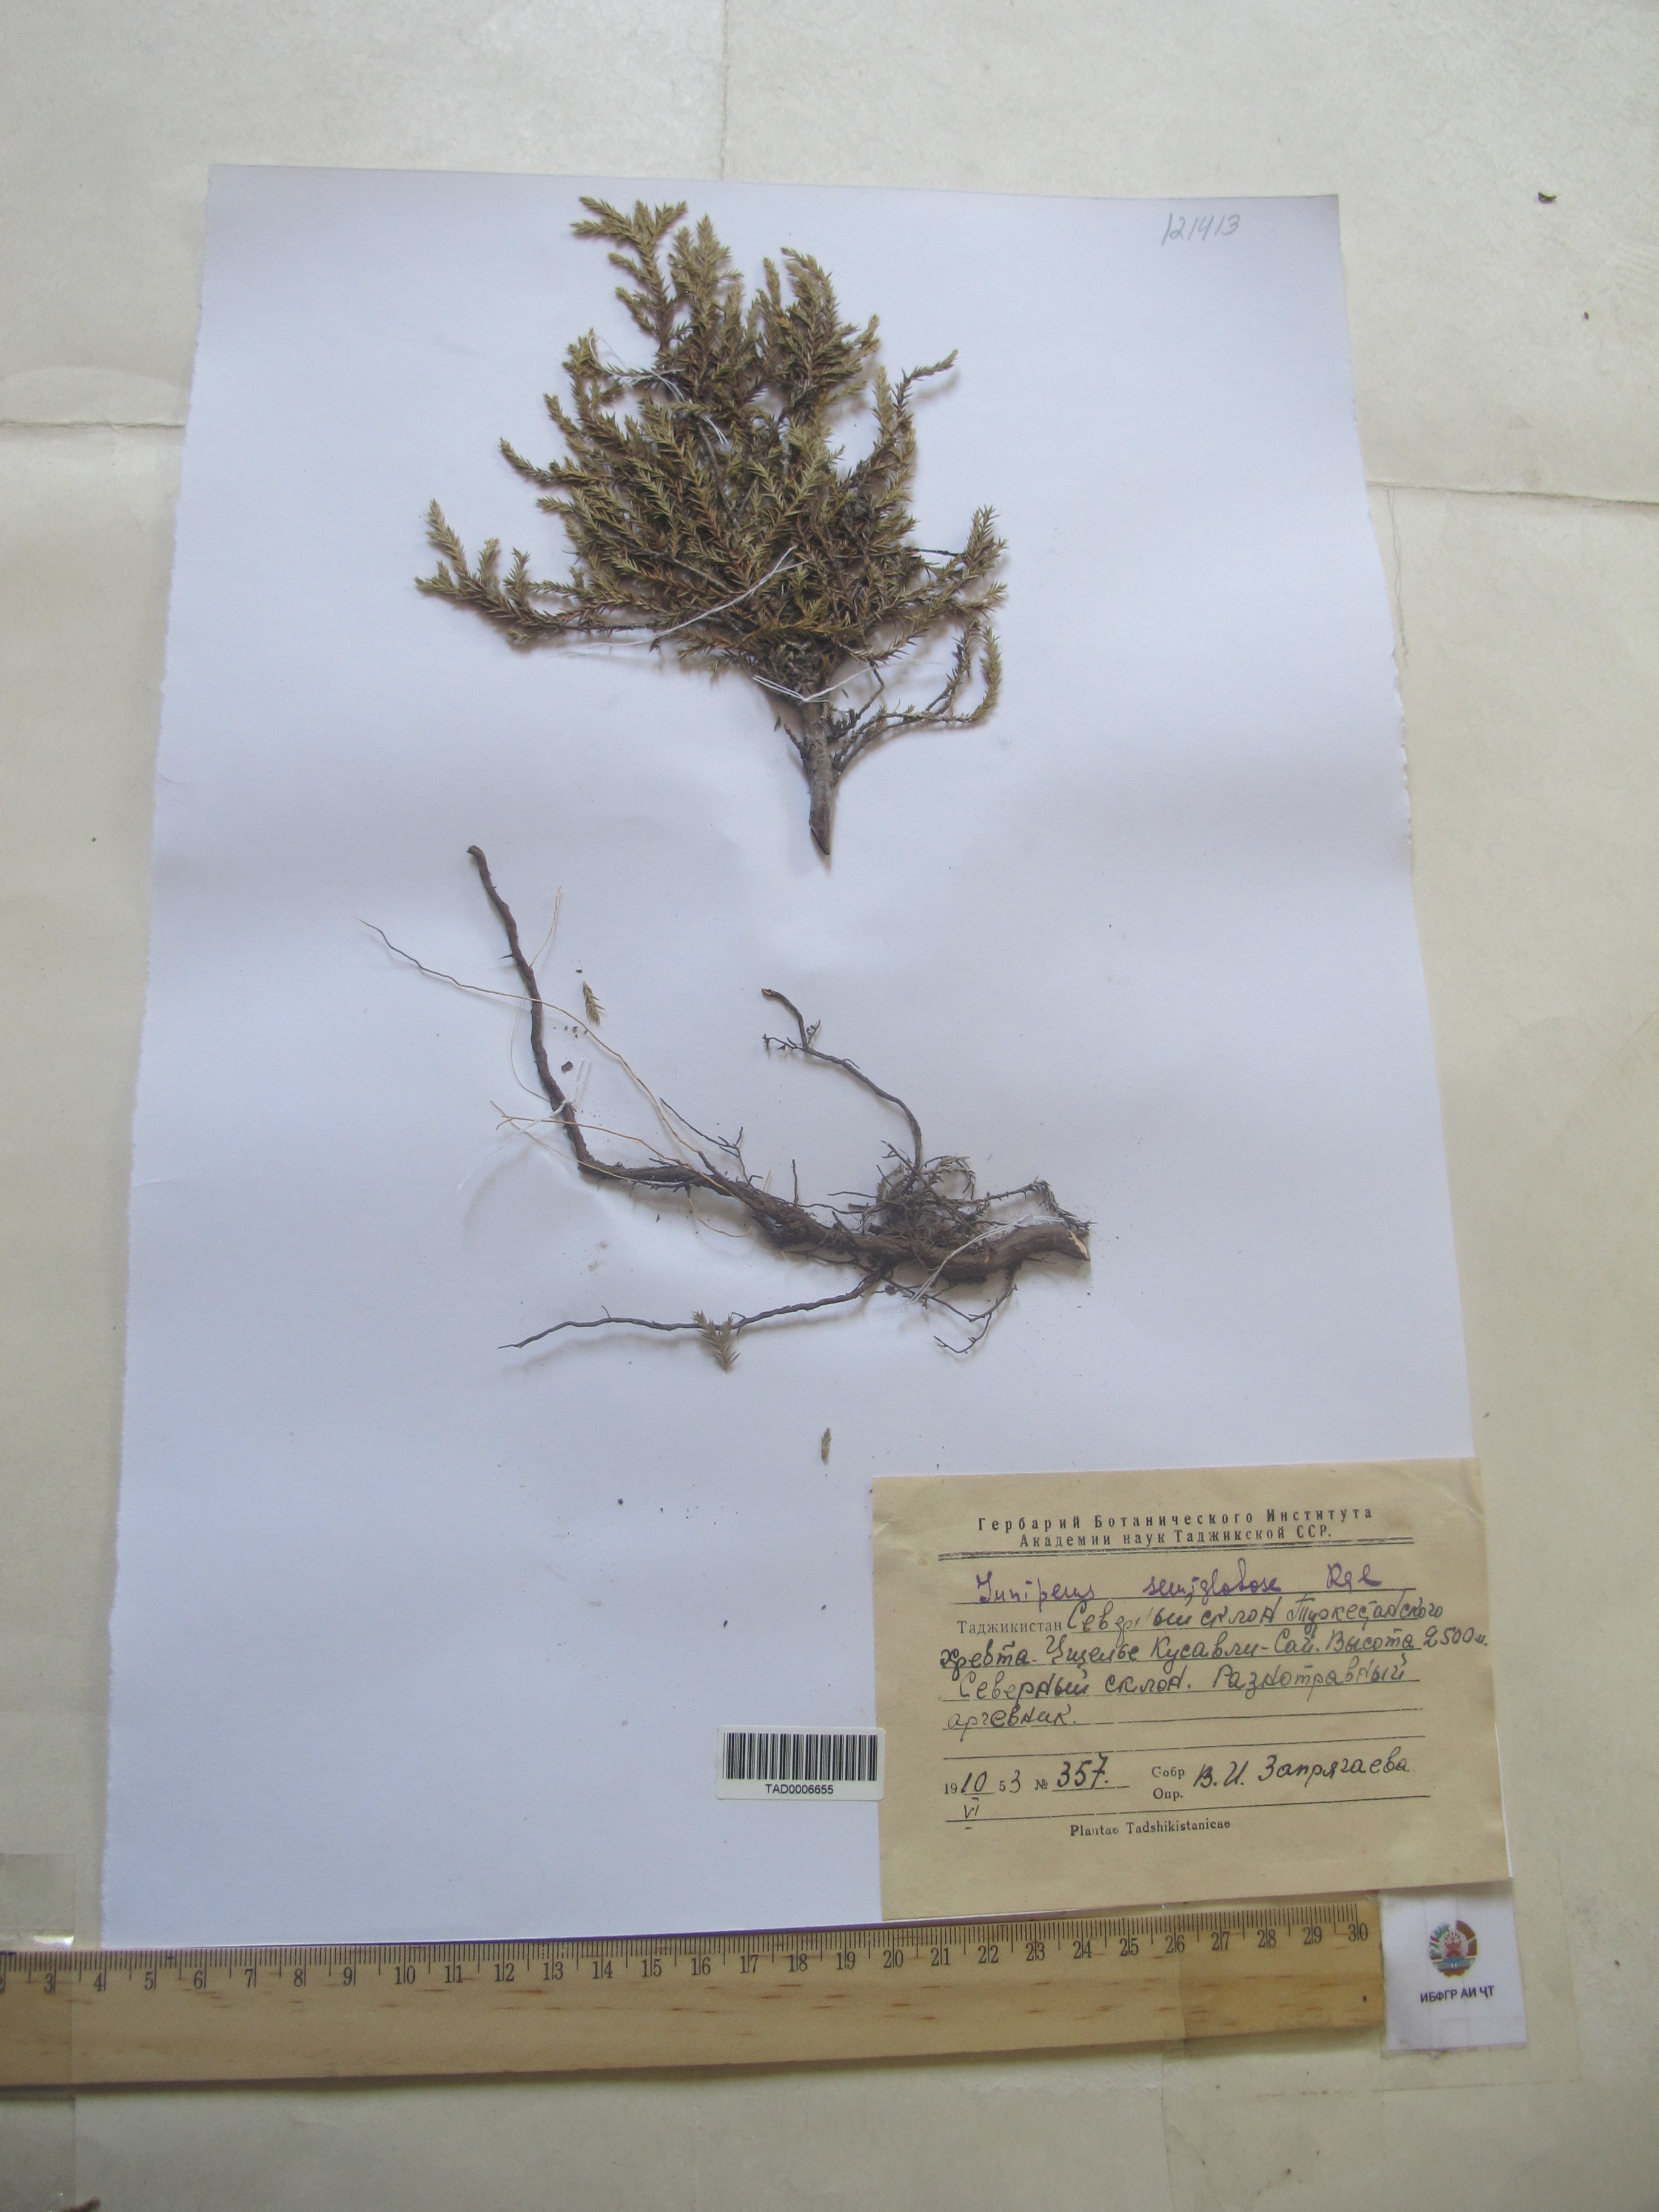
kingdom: Plantae
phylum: Tracheophyta
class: Pinopsida
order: Pinales
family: Cupressaceae
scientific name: Cupressaceae
